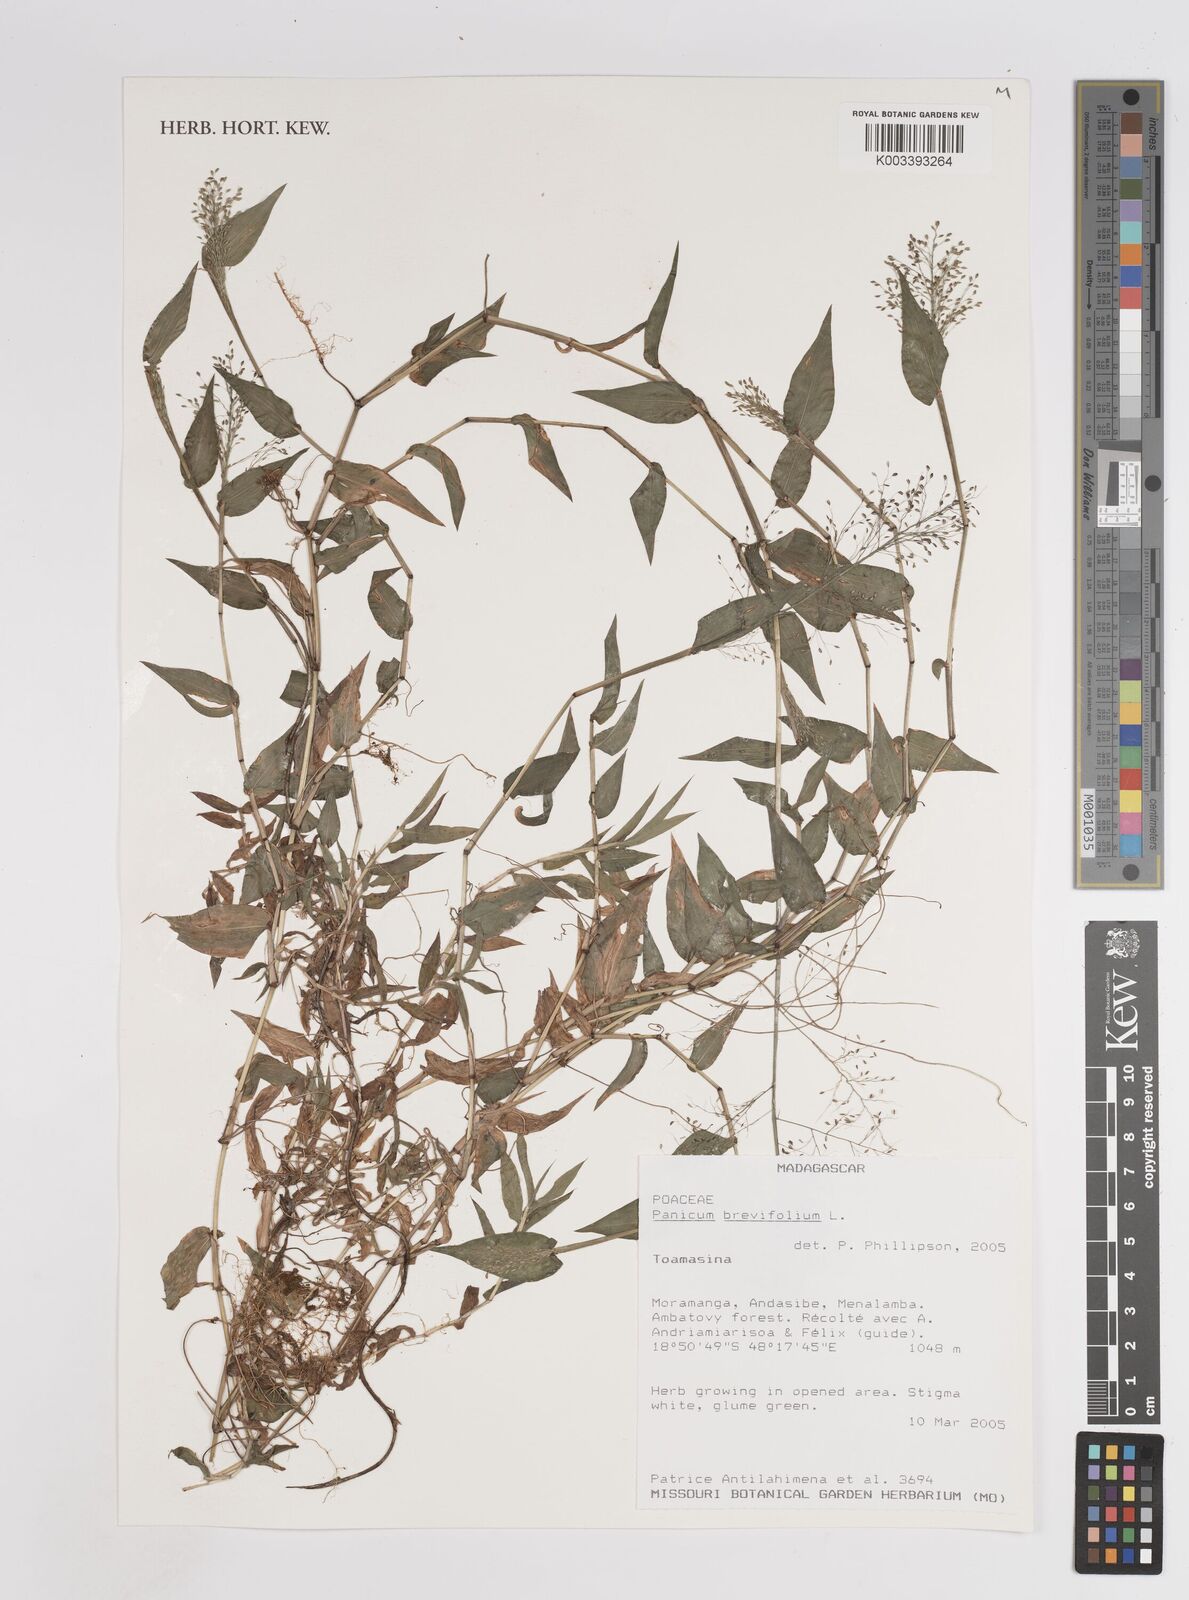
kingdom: Plantae
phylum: Tracheophyta
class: Liliopsida
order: Poales
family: Poaceae
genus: Panicum
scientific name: Panicum brevifolium
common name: Shortleaf panic grass
